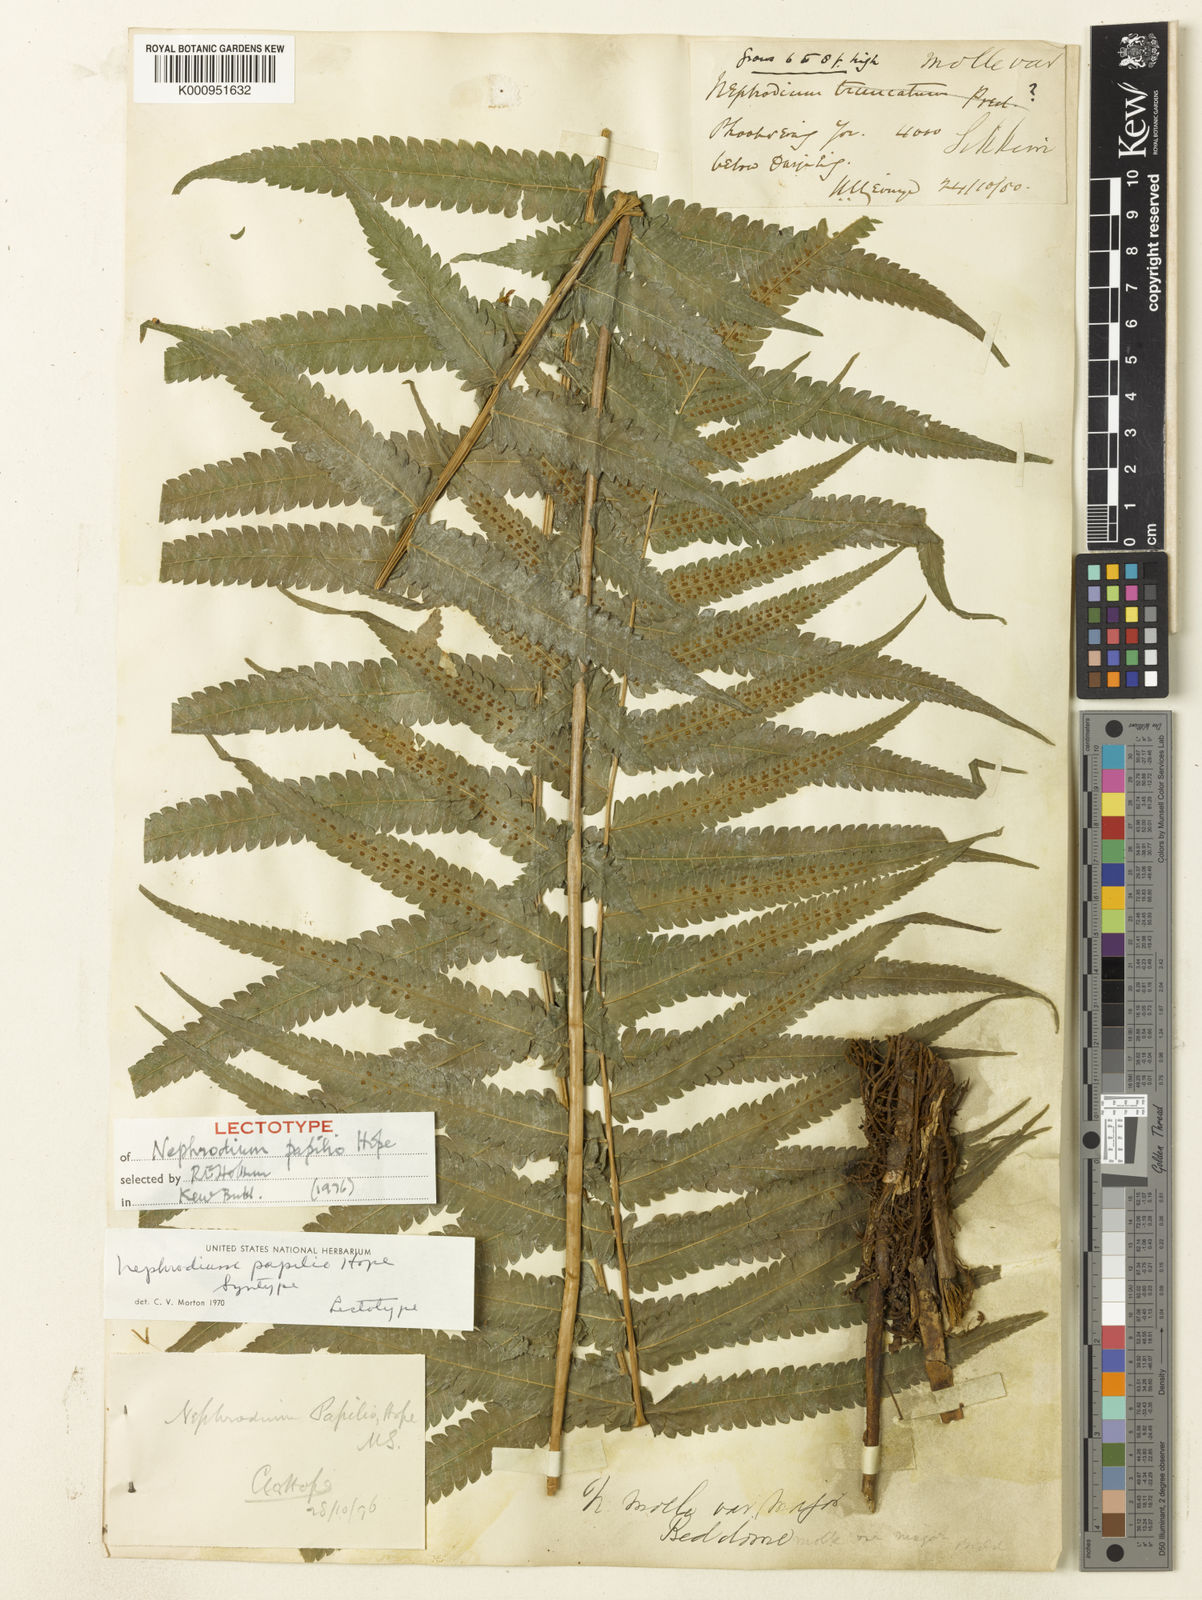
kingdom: Plantae
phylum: Tracheophyta
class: Polypodiopsida
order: Polypodiales
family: Thelypteridaceae
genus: Christella
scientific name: Christella papilio
